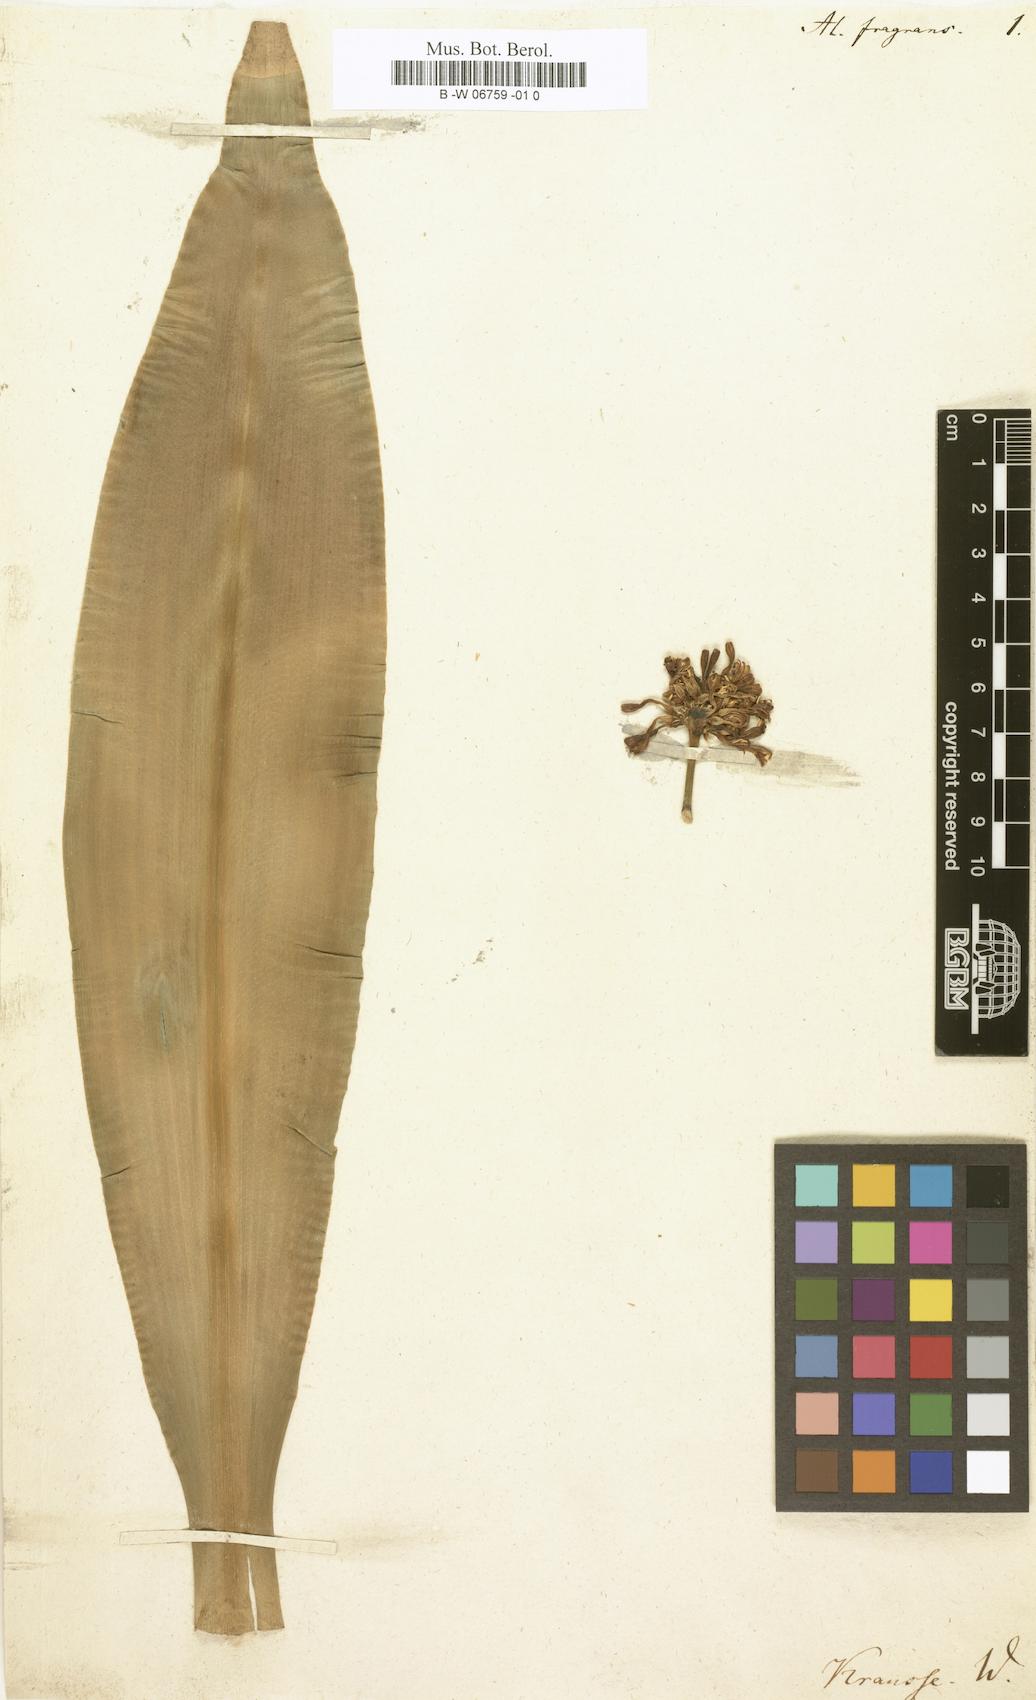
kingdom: Plantae
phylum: Tracheophyta
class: Liliopsida
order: Asparagales
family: Asparagaceae
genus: Dracaena
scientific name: Dracaena fragrans
